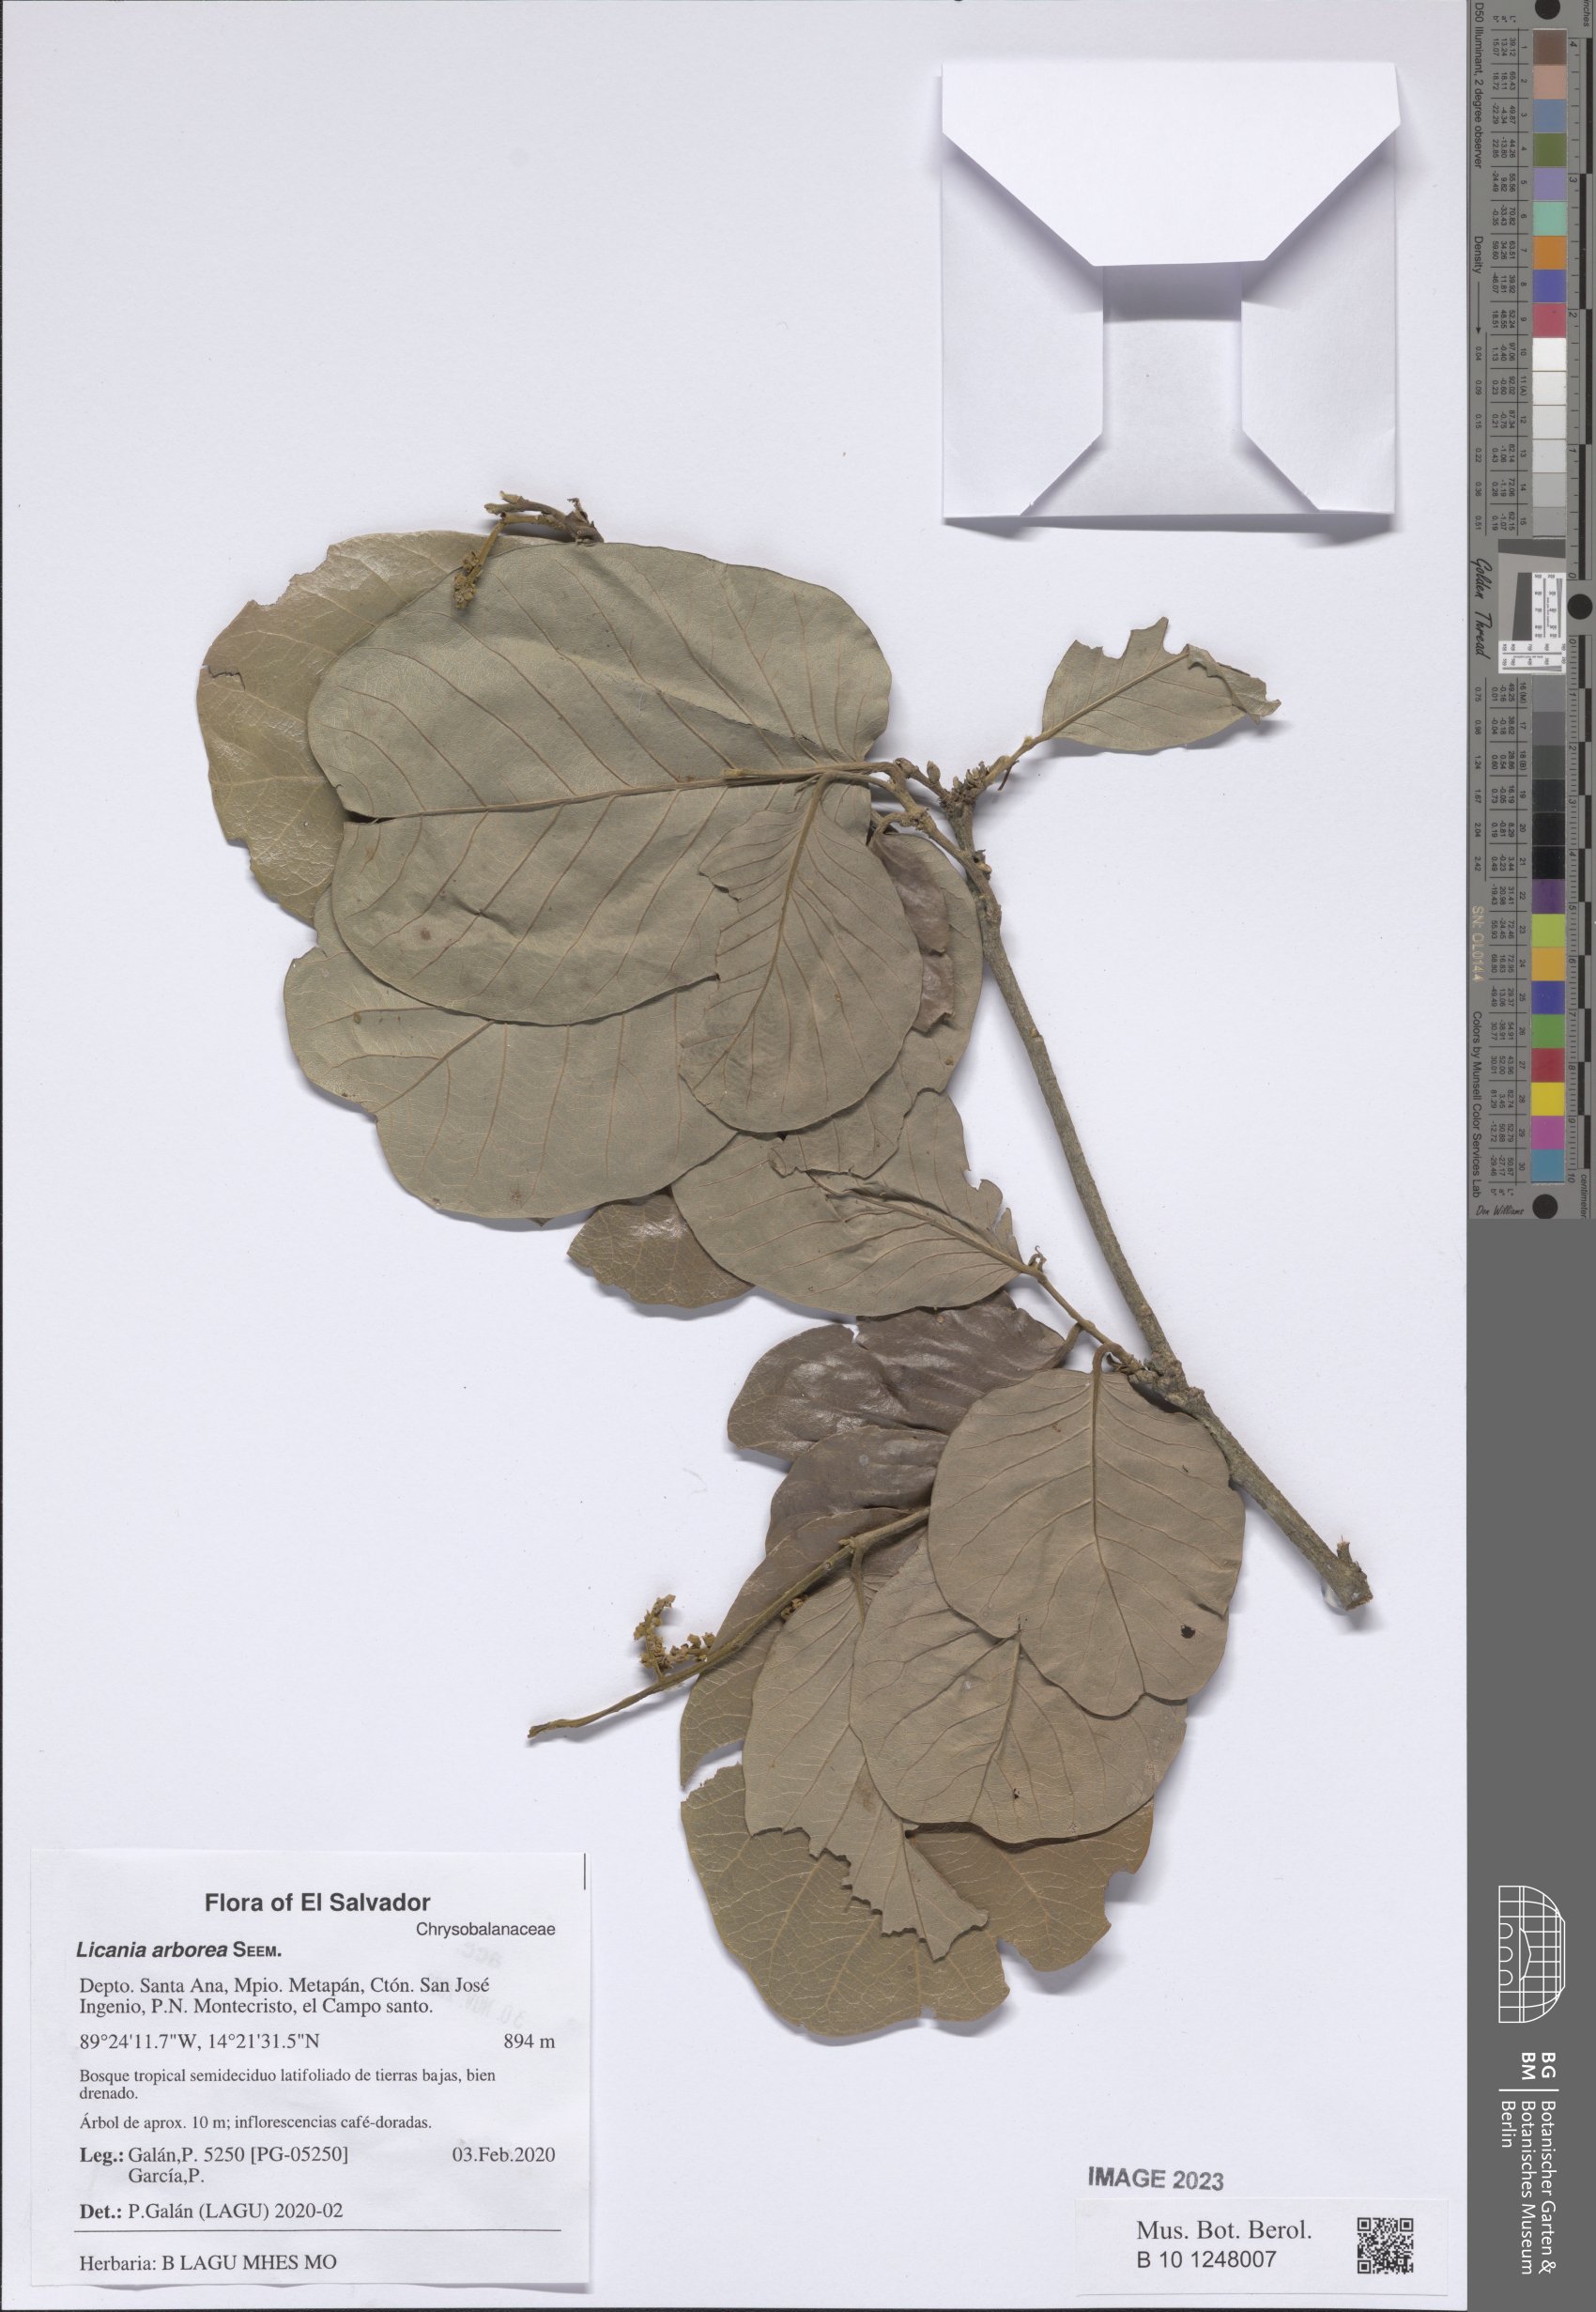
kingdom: Plantae
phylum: Tracheophyta
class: Magnoliopsida
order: Malpighiales
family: Chrysobalanaceae
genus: Microdesmia
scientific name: Microdesmia arborea
